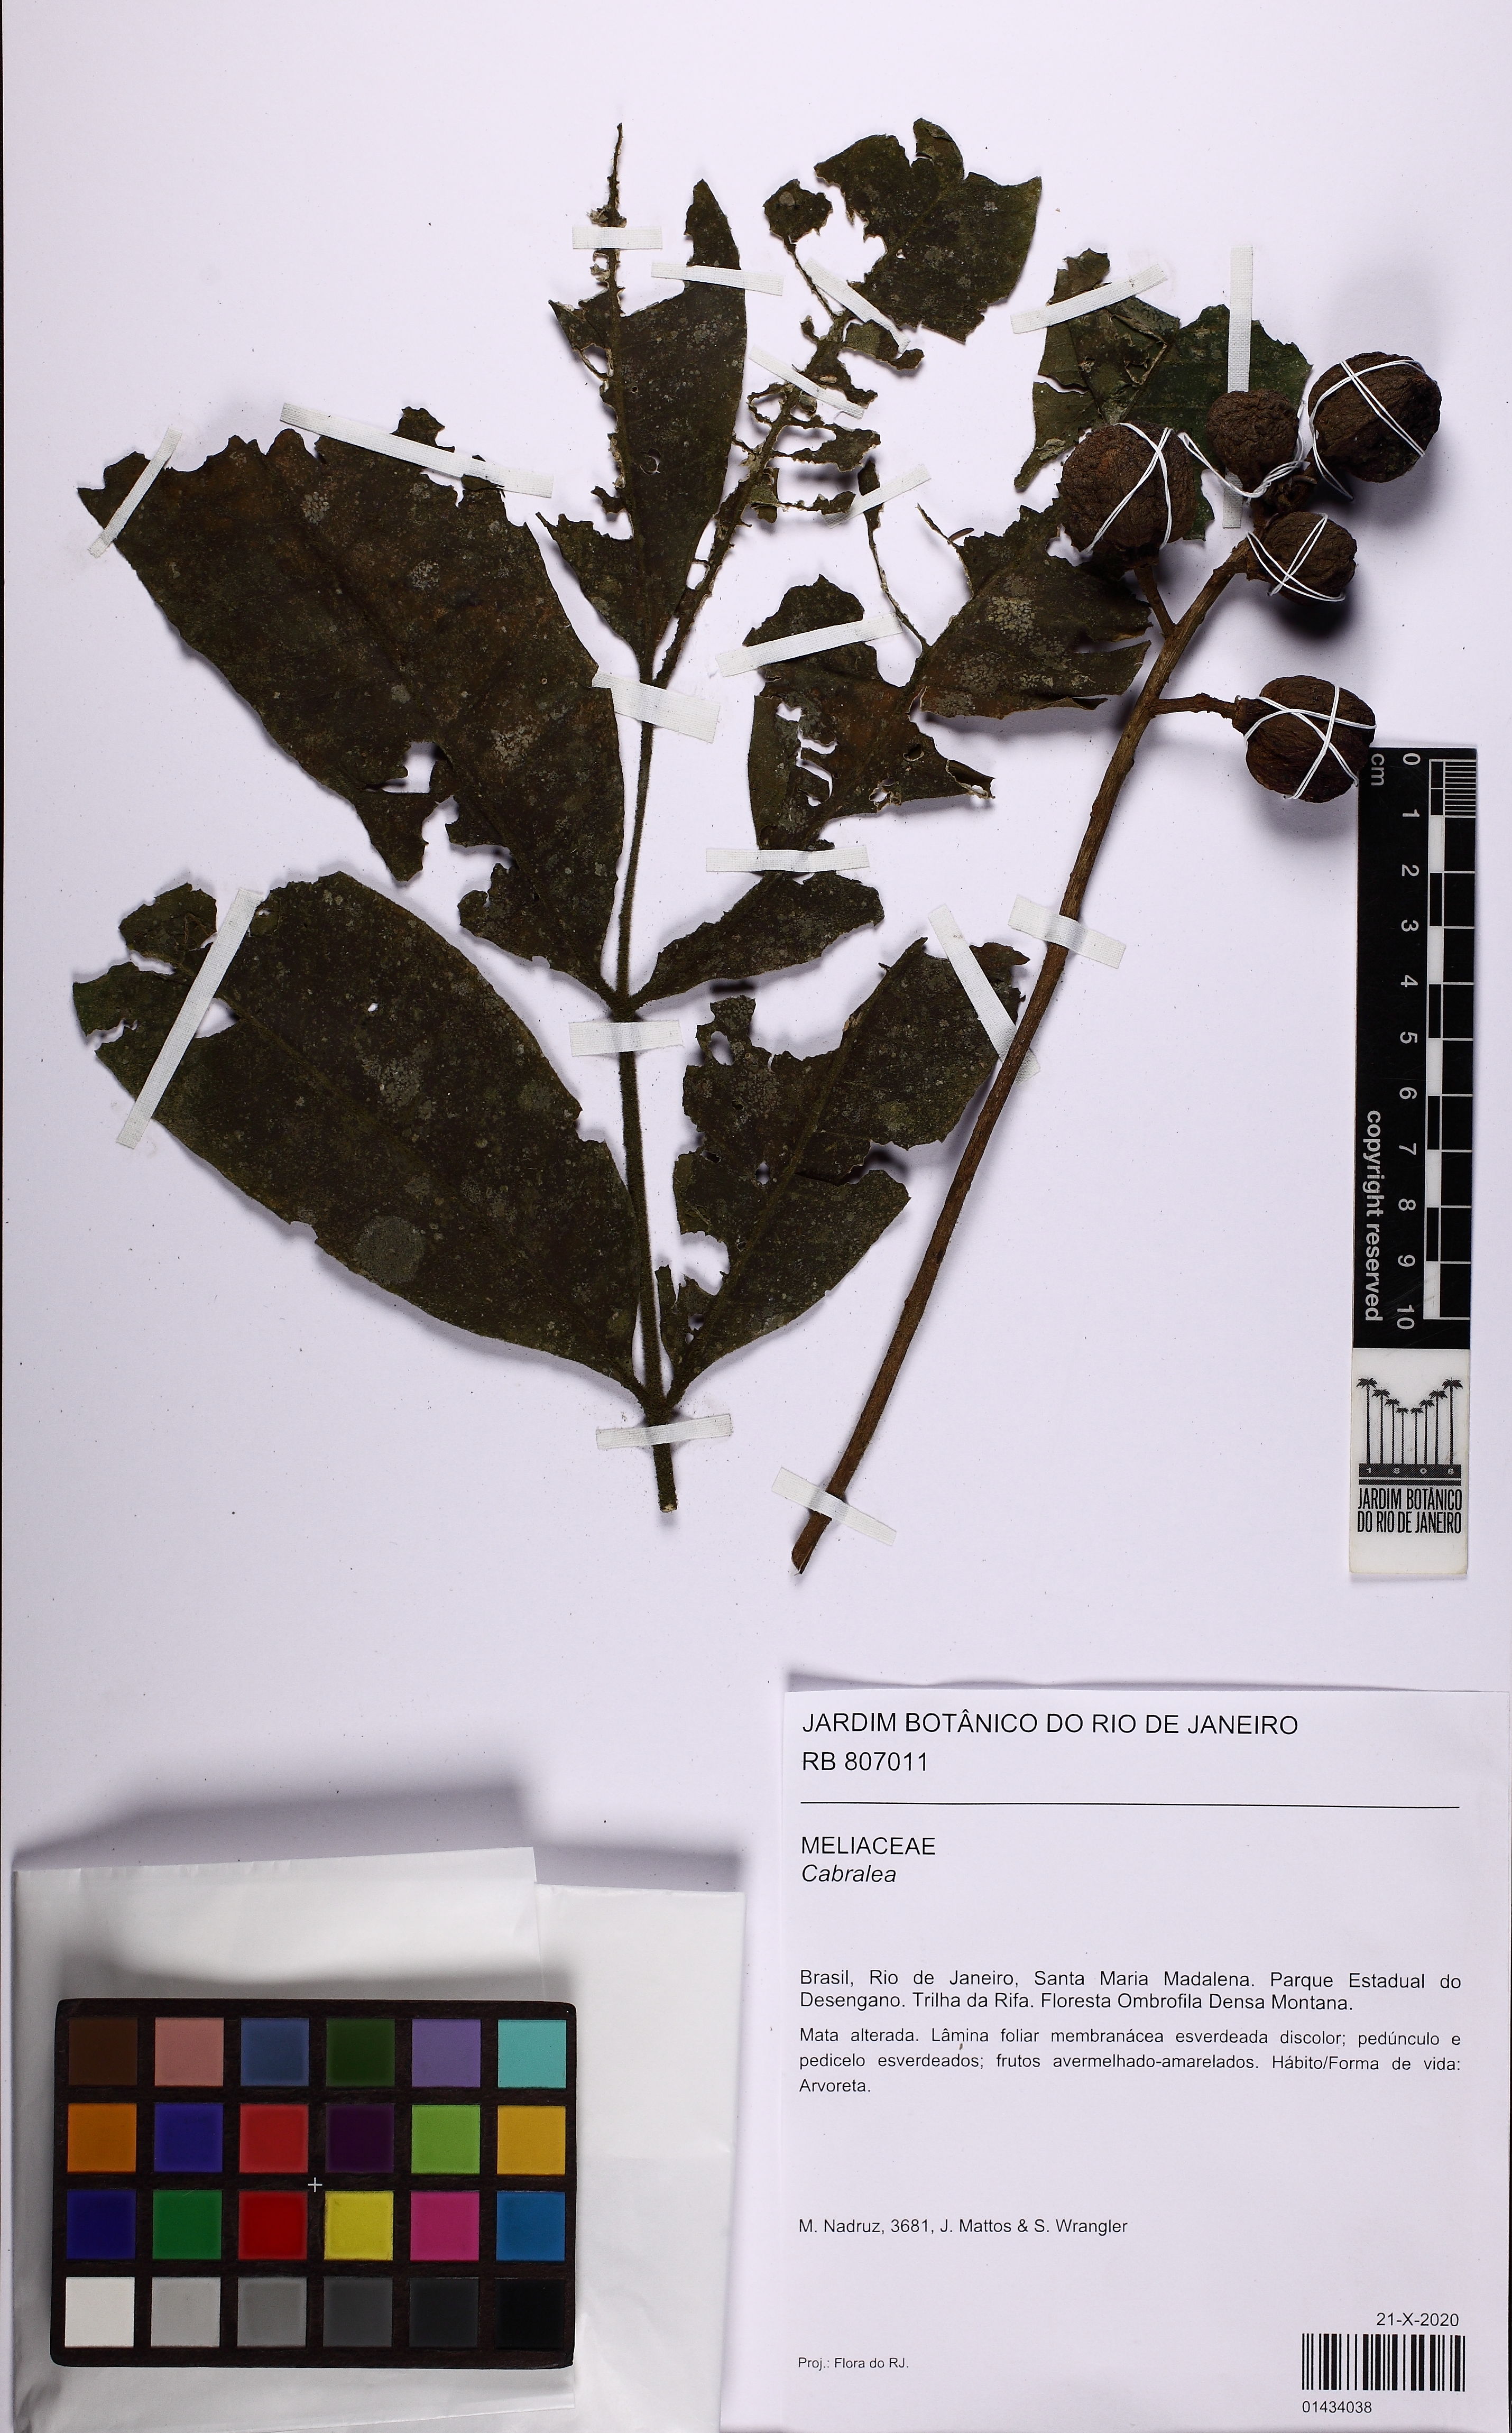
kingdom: Plantae
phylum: Tracheophyta
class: Magnoliopsida
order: Sapindales
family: Meliaceae
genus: Cabralea
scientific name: Cabralea
